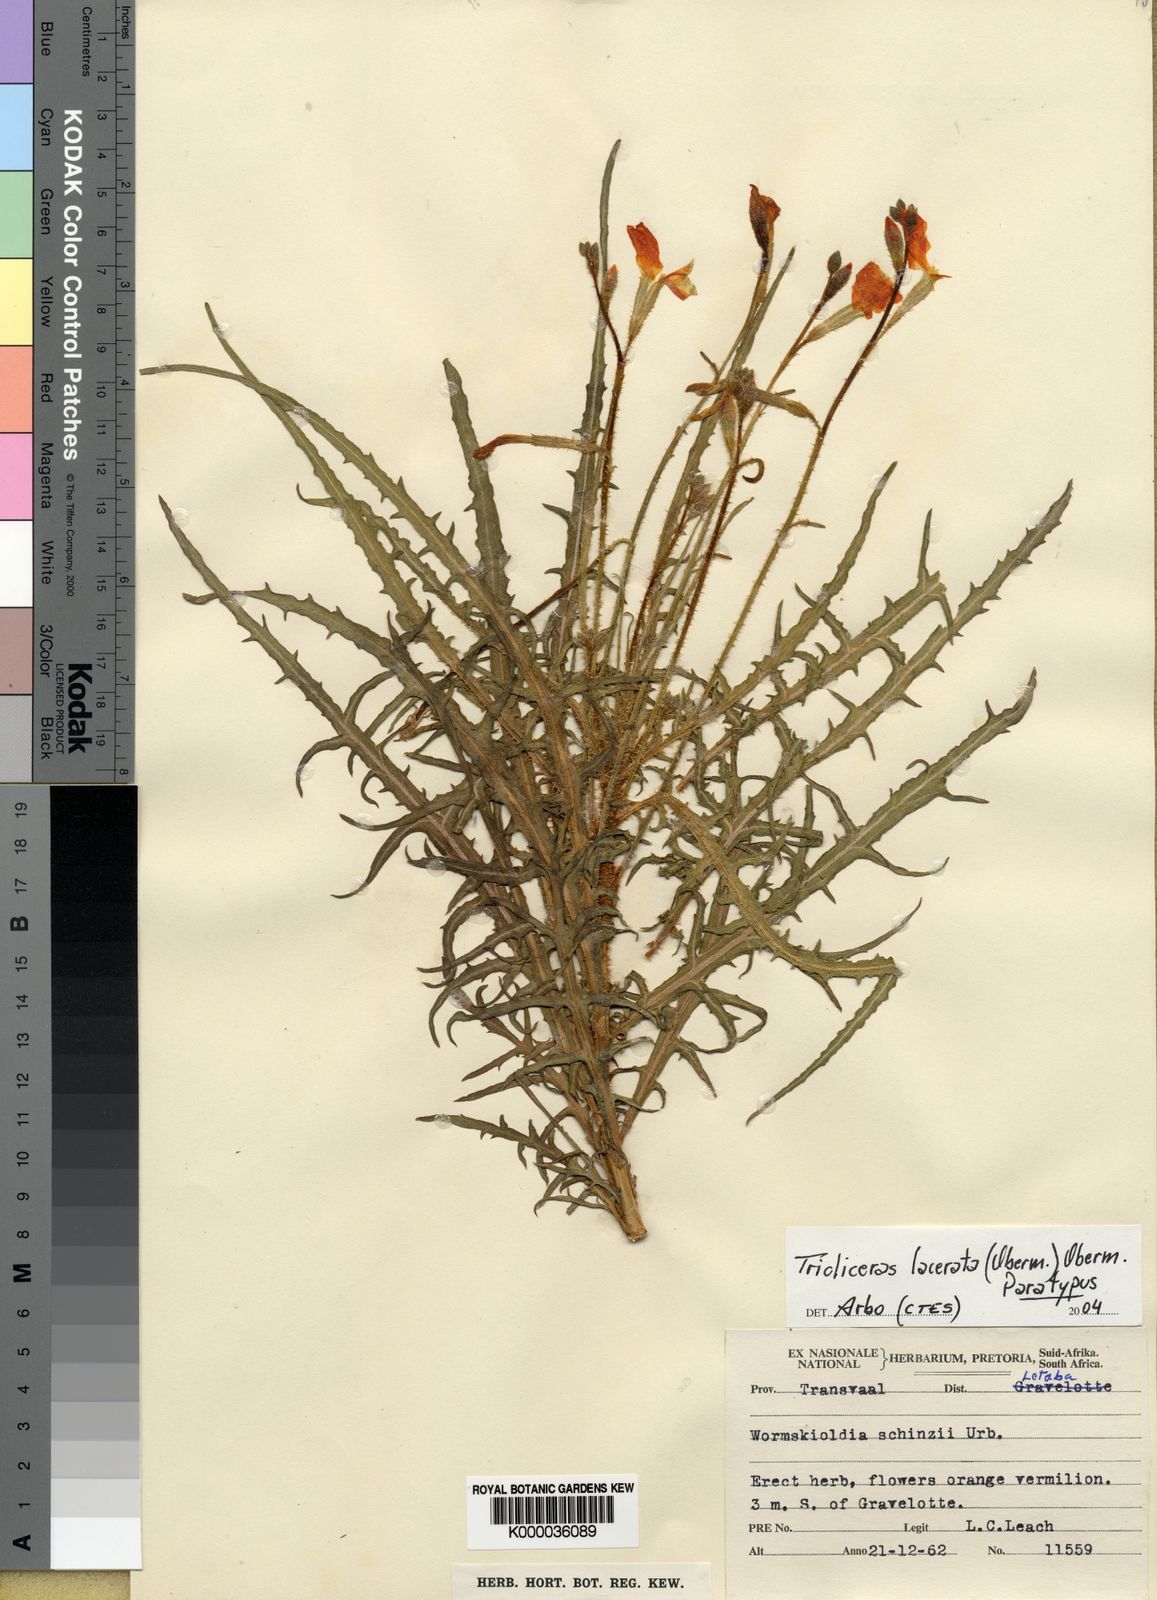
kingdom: Plantae
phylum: Tracheophyta
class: Magnoliopsida
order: Malpighiales
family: Turneraceae
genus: Streptopetalum
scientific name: Streptopetalum
